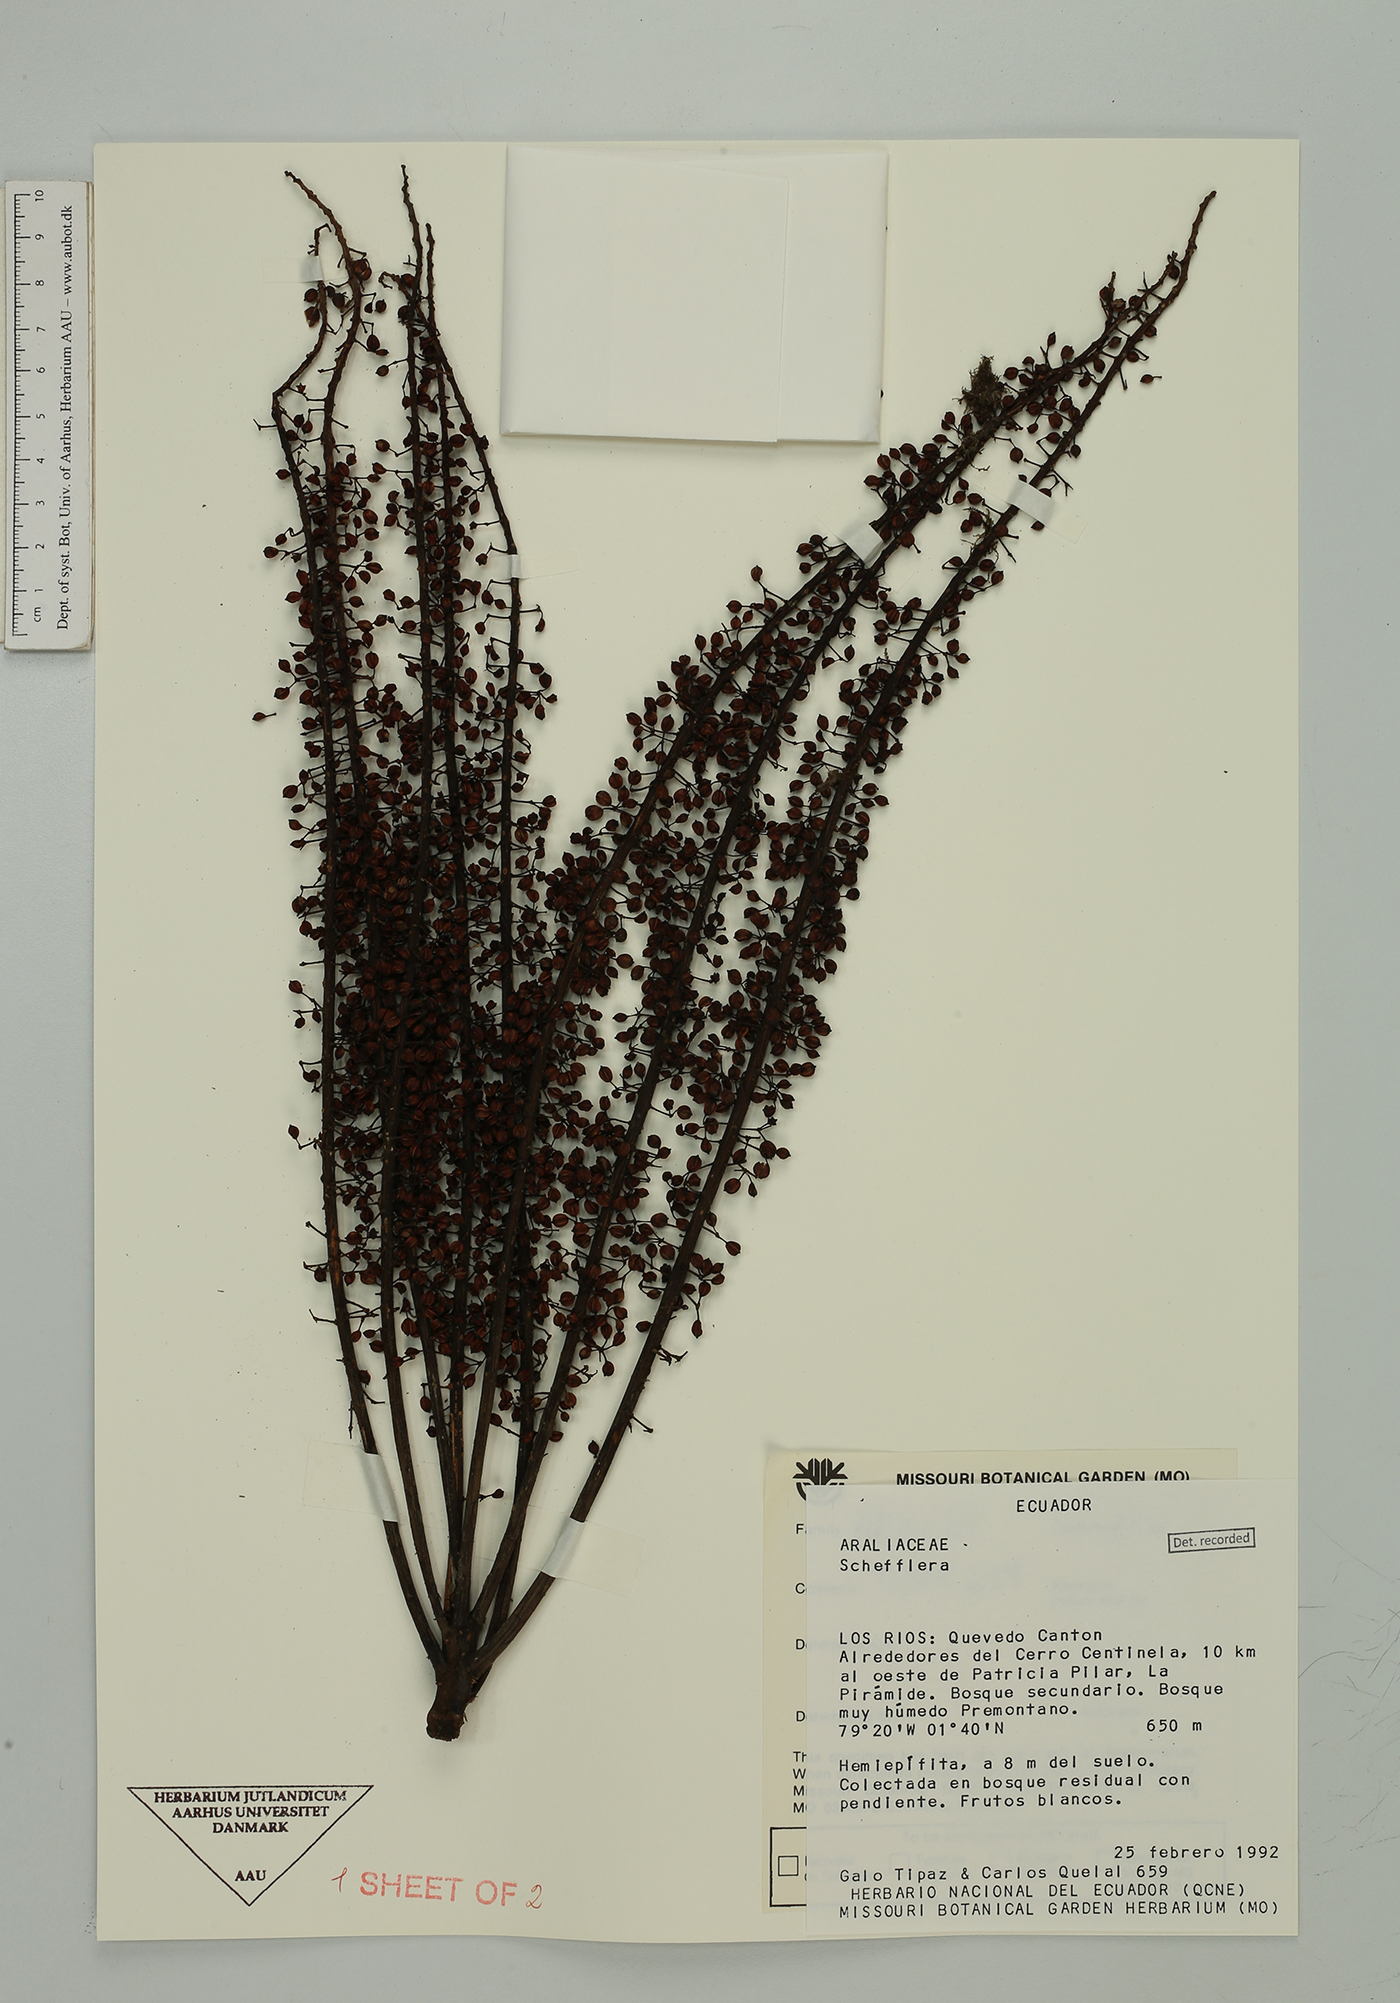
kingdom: Plantae
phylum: Tracheophyta
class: Magnoliopsida
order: Apiales
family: Araliaceae
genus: Sciodaphyllum
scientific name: Sciodaphyllum
